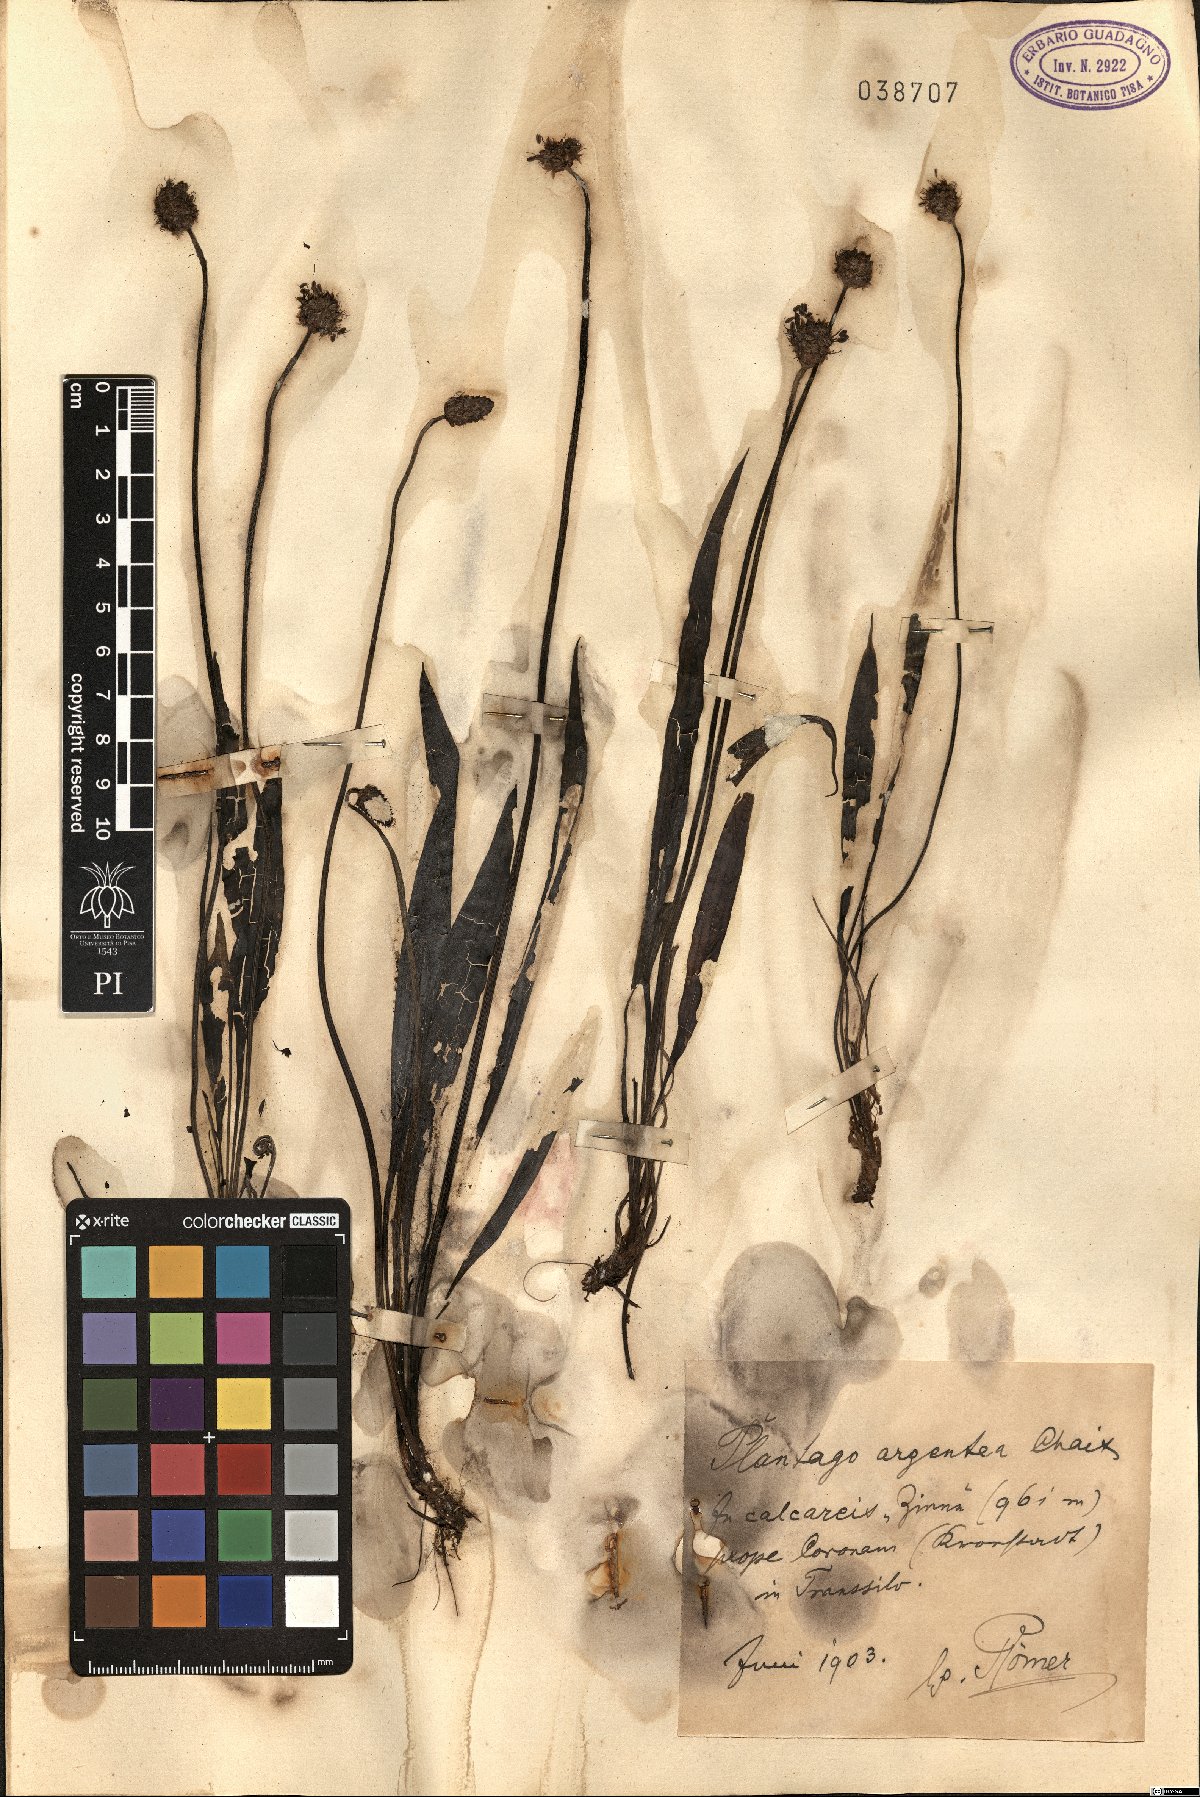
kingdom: Plantae
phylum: Tracheophyta
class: Magnoliopsida
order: Lamiales
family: Plantaginaceae
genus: Plantago
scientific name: Plantago argentea
